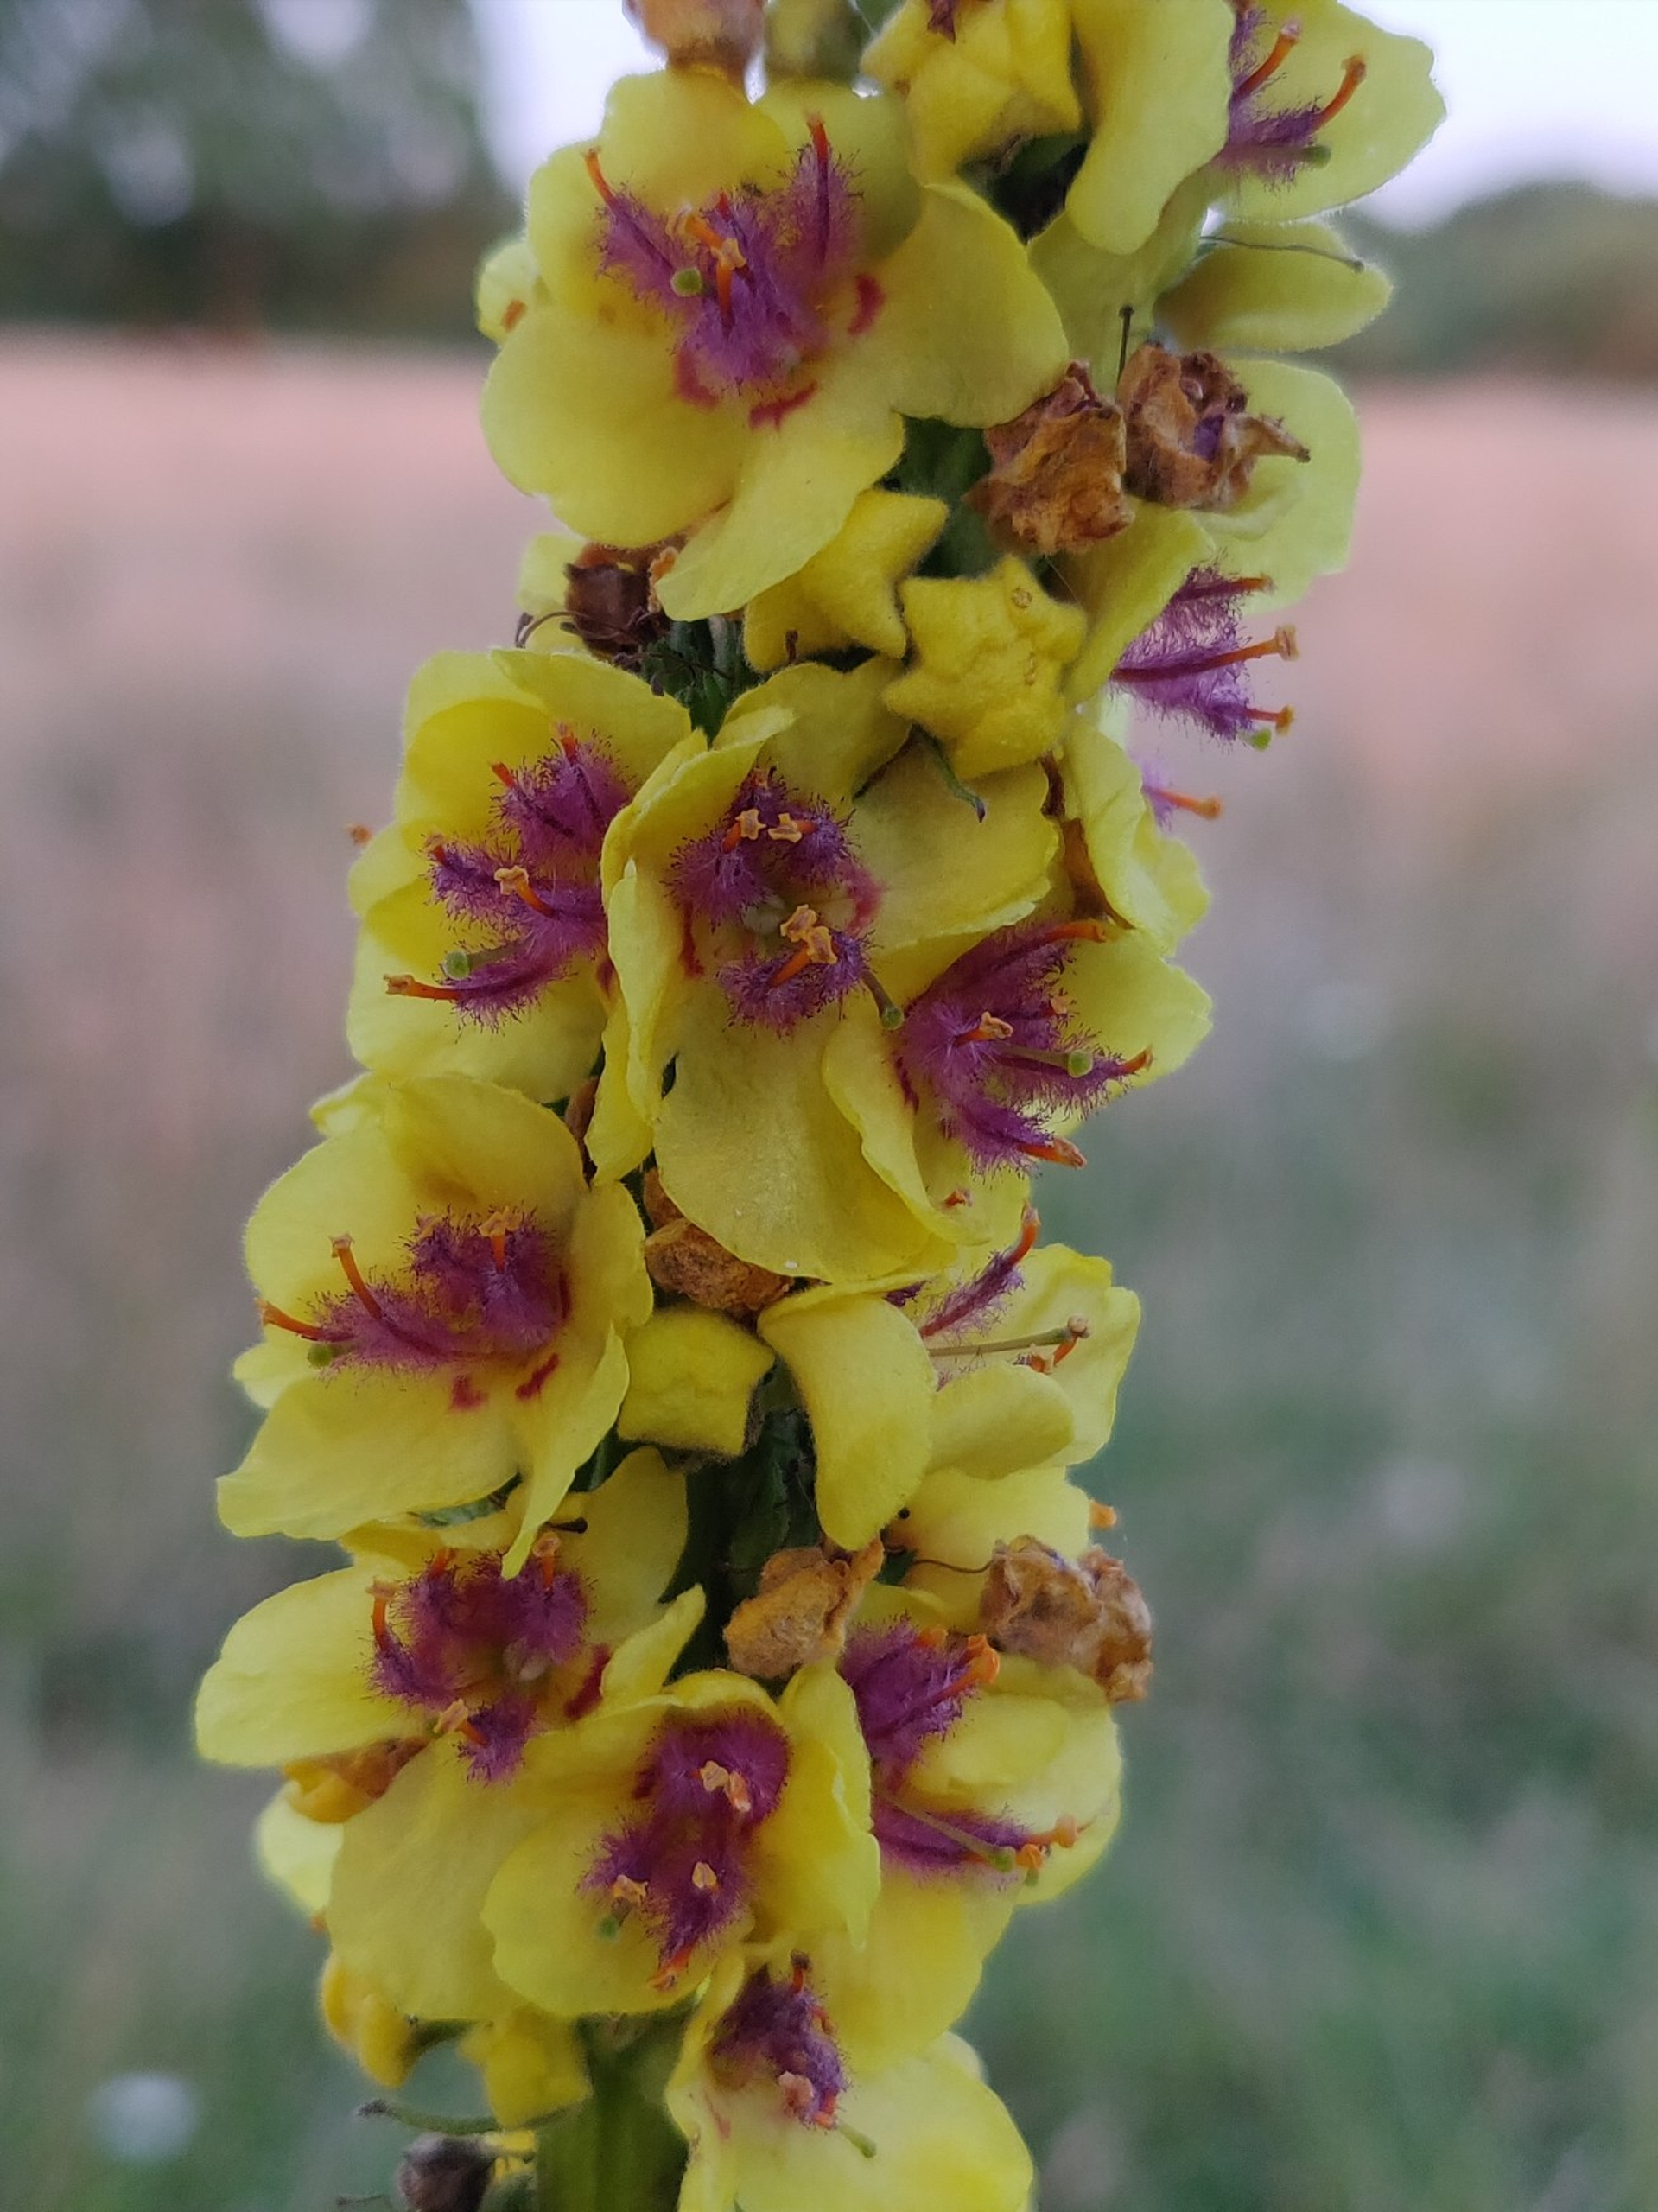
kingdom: Plantae
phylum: Tracheophyta
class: Magnoliopsida
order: Lamiales
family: Scrophulariaceae
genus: Verbascum
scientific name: Verbascum nigrum
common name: Mørk kongelys
